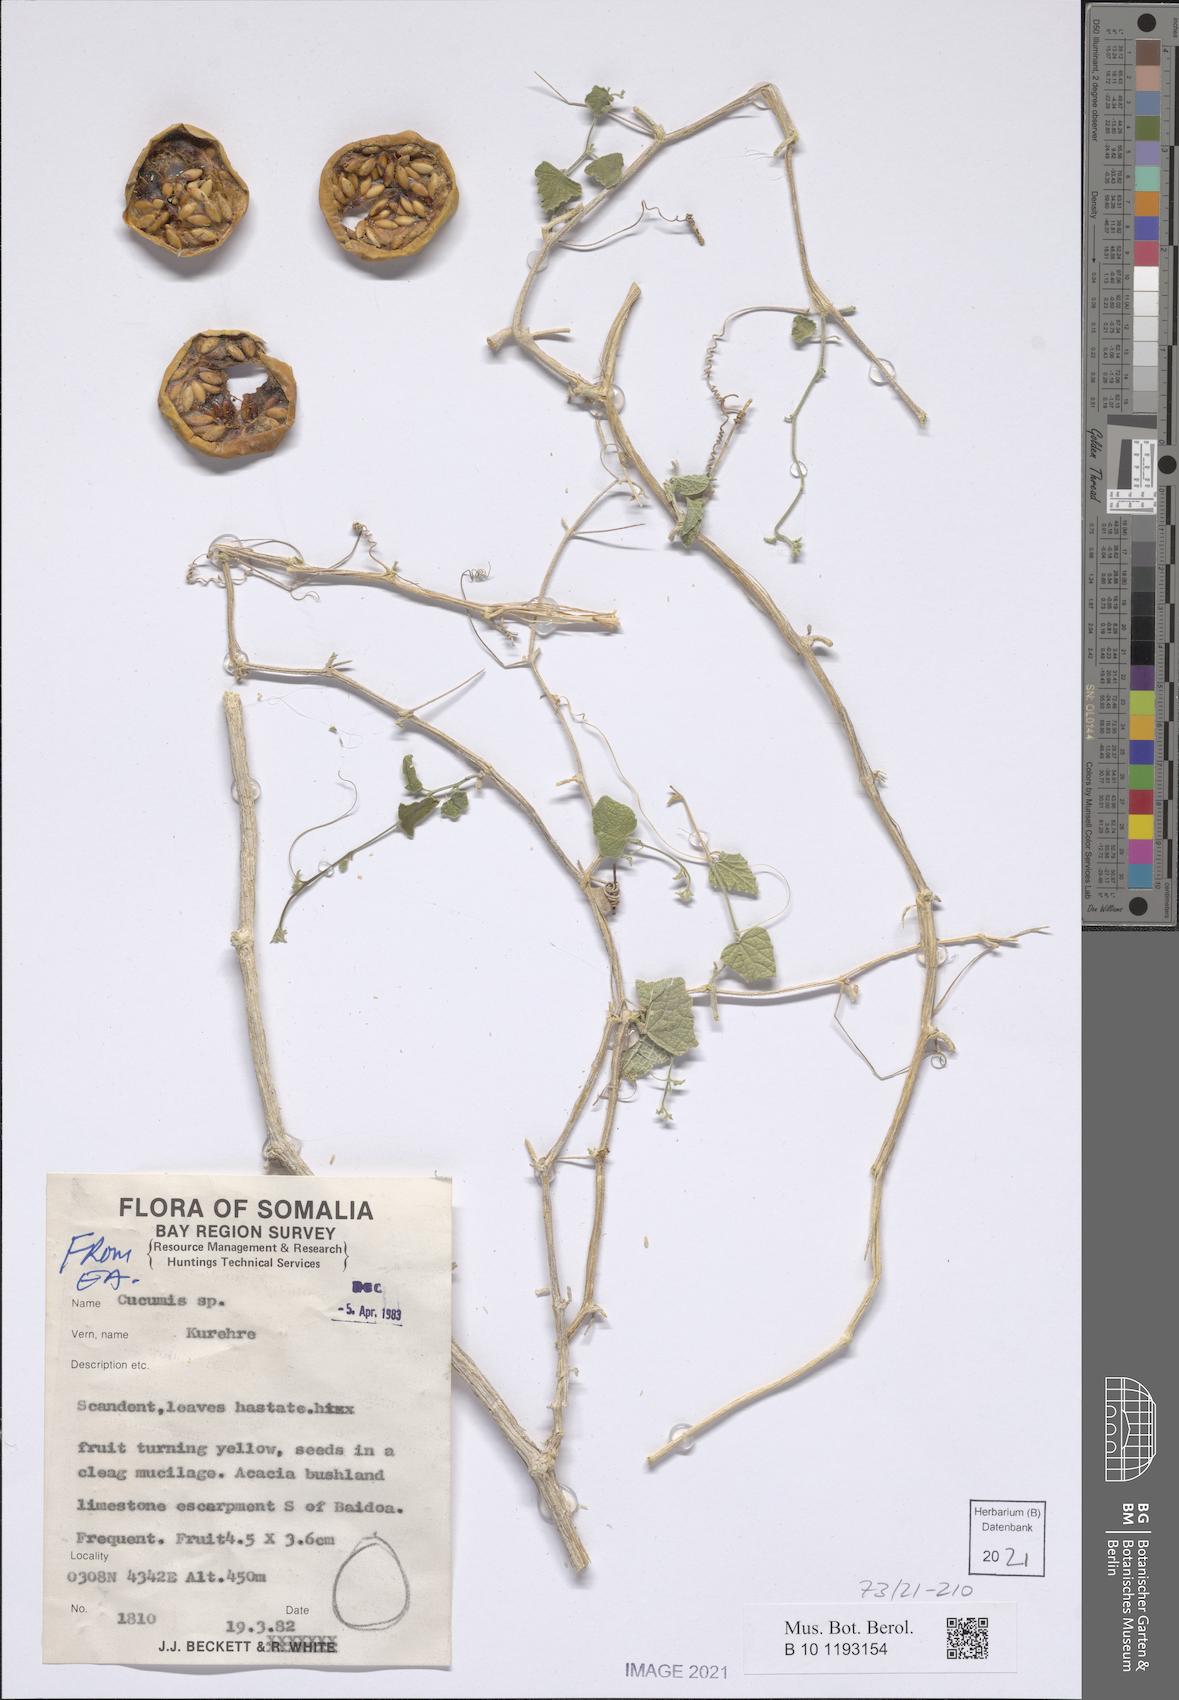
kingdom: Plantae
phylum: Tracheophyta
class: Magnoliopsida
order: Cucurbitales
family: Cucurbitaceae
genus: Cucumis
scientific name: Cucumis
